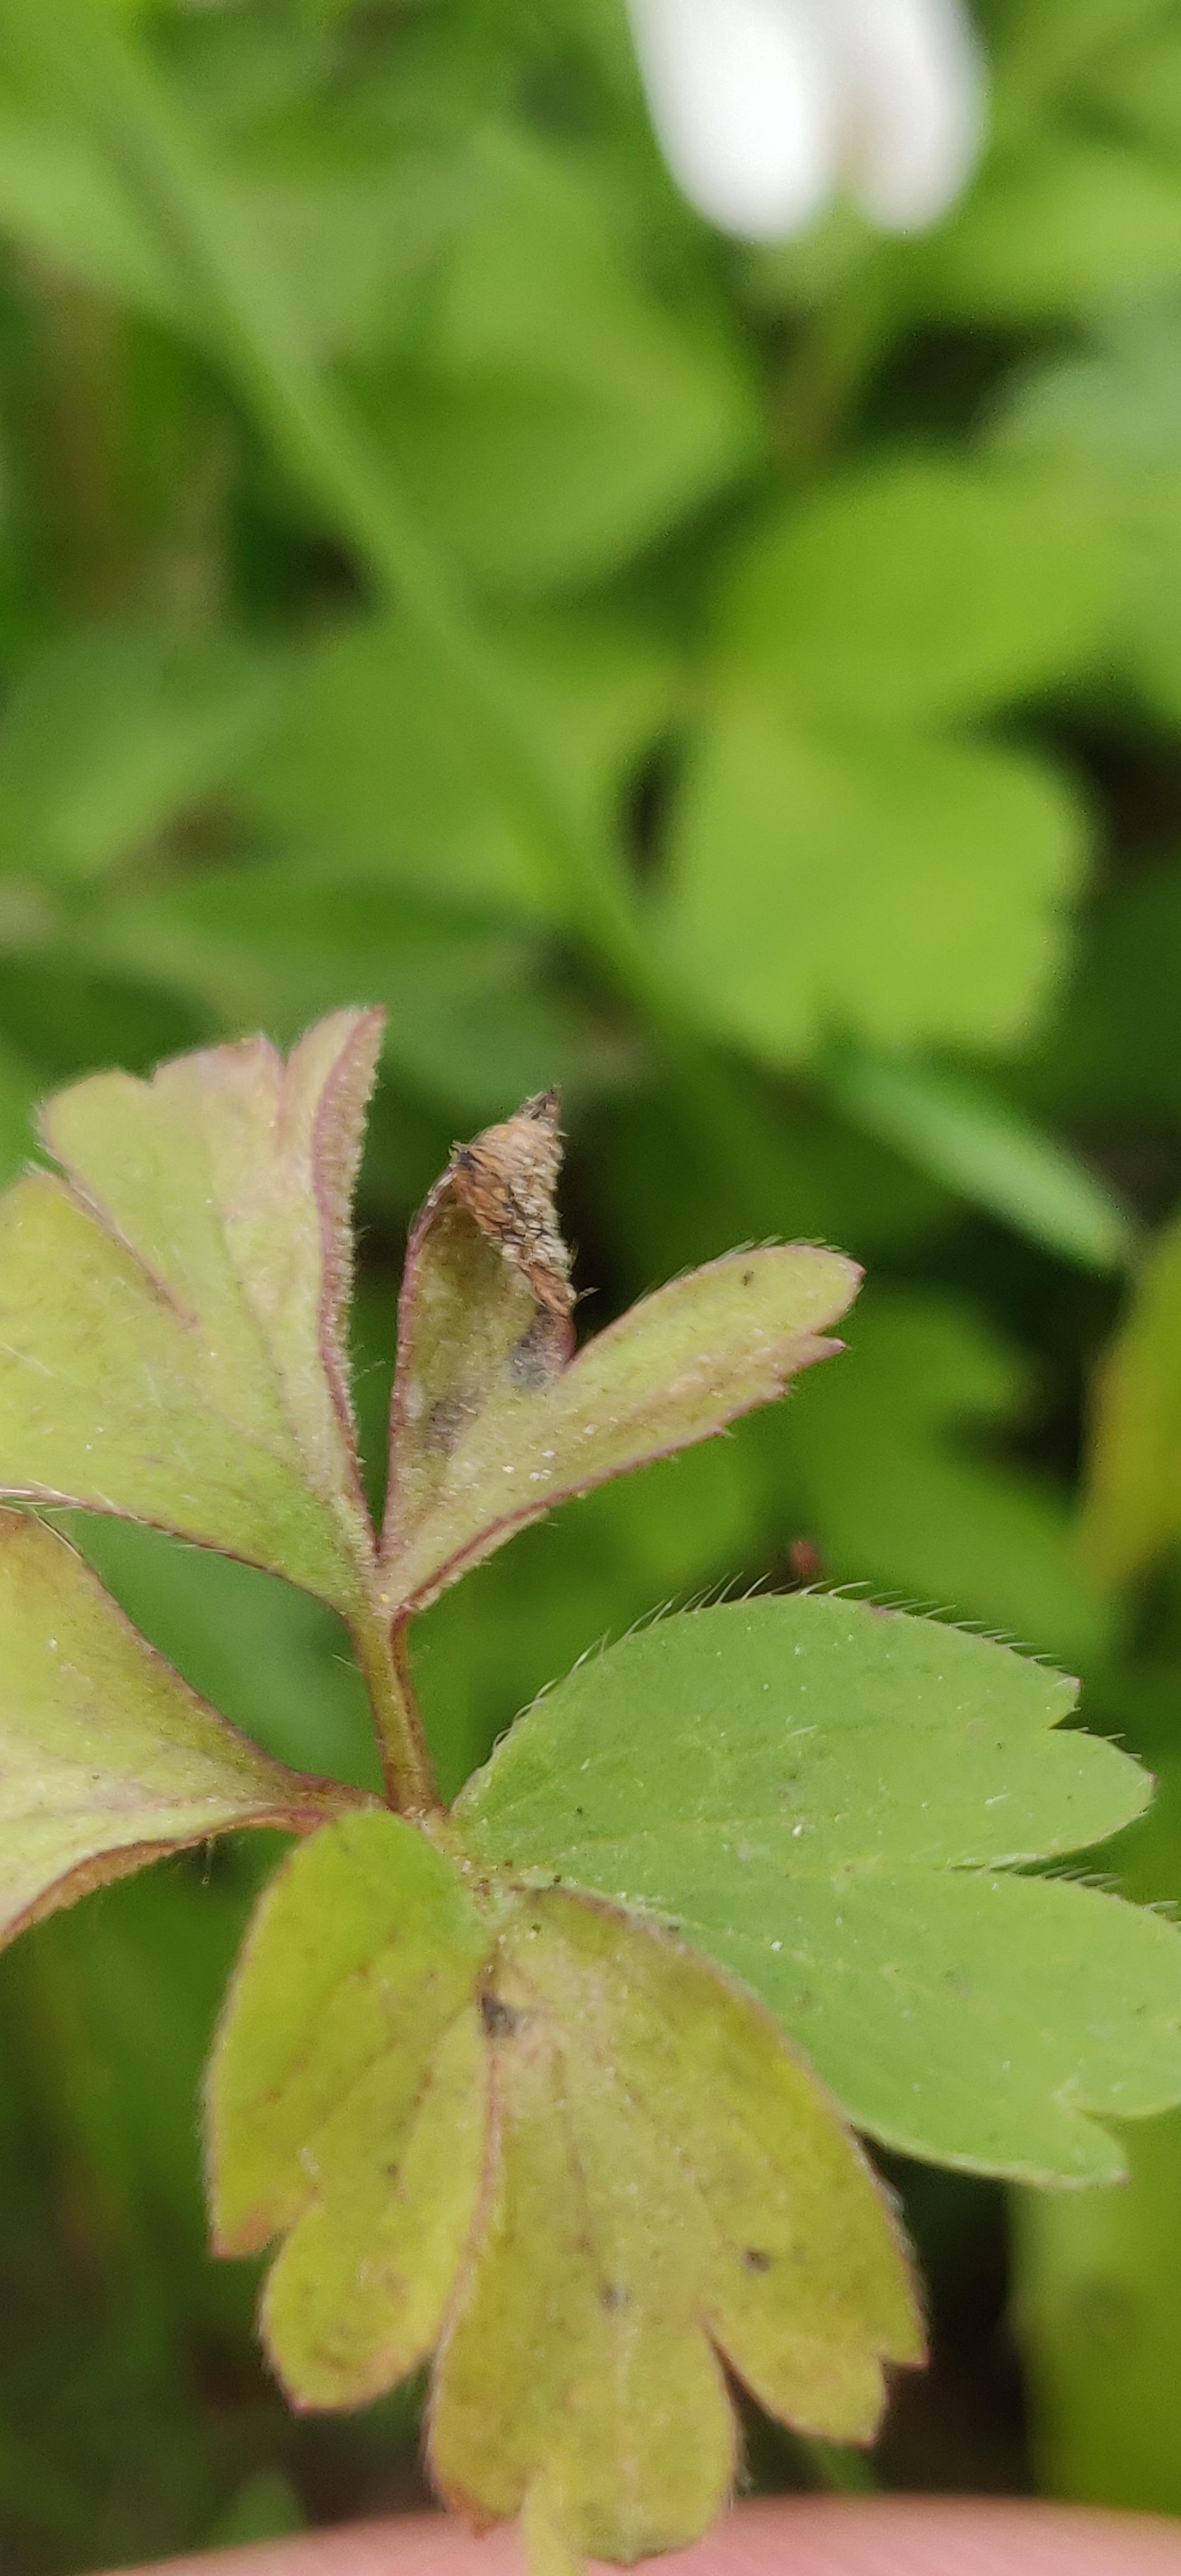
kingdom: Chromista
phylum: Oomycota
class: Peronosporea
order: Peronosporales
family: Peronosporaceae
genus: Plasmoverna
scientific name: Plasmoverna pygmaea
